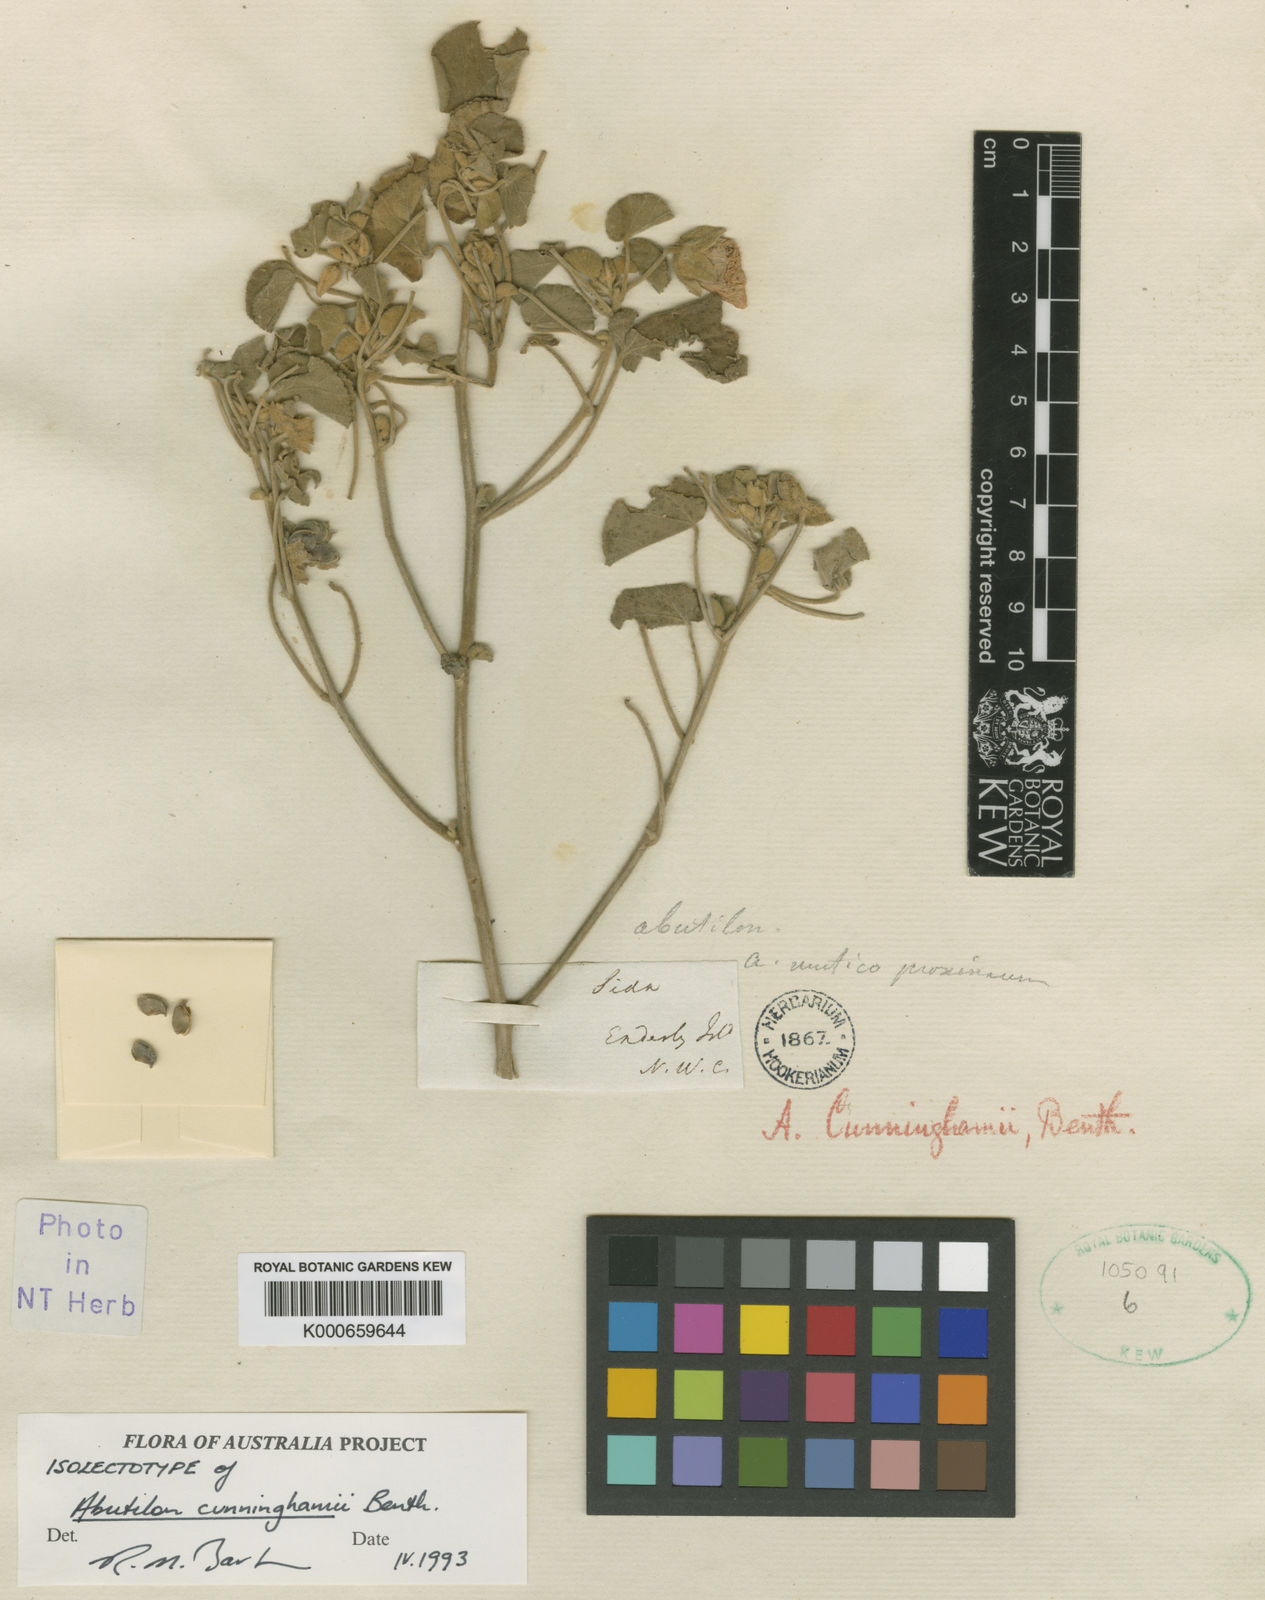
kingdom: Plantae
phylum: Tracheophyta
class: Magnoliopsida
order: Malvales
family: Malvaceae
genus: Abutilon
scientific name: Abutilon indicum
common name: Indian abutilon
